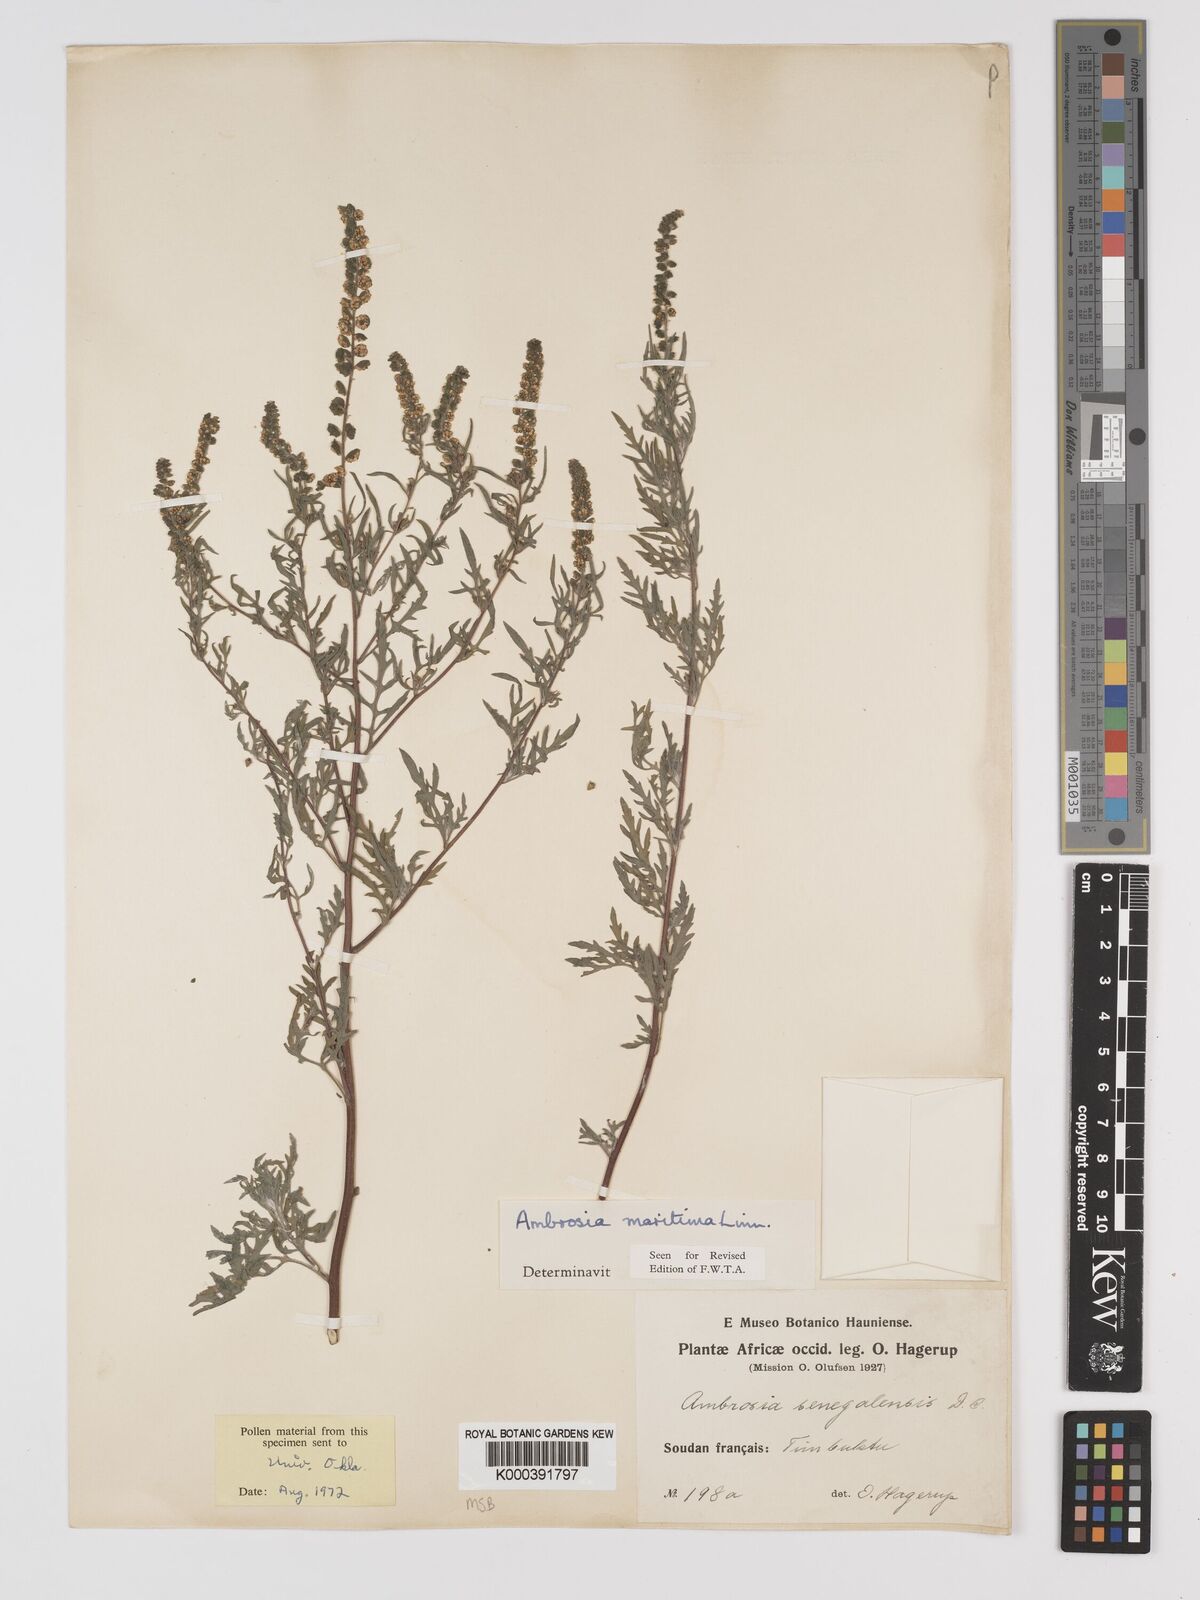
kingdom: Plantae
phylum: Tracheophyta
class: Magnoliopsida
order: Asterales
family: Asteraceae
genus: Ambrosia
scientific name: Ambrosia maritima
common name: Sea ambrosia
